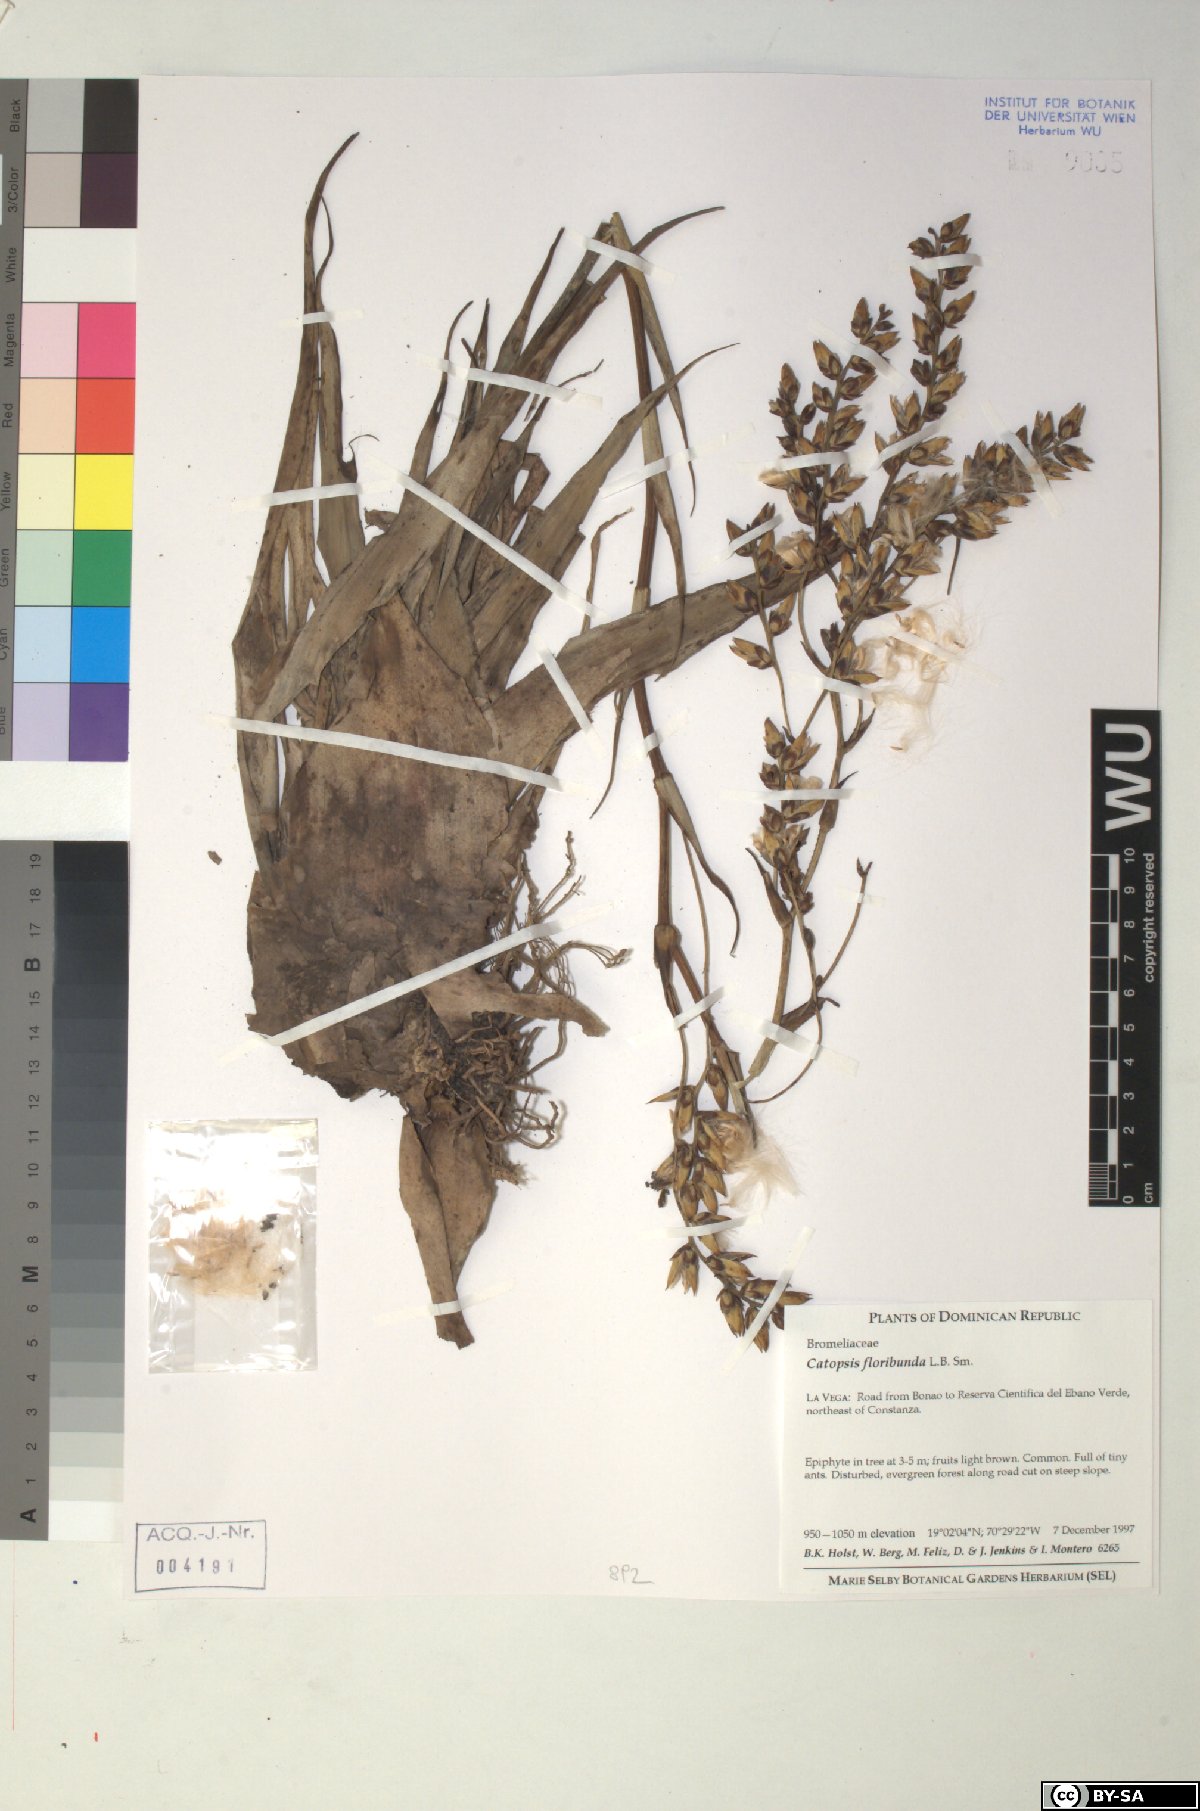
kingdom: Plantae
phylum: Tracheophyta
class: Liliopsida
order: Poales
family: Bromeliaceae
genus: Catopsis
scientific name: Catopsis floribunda
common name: Florida strap airplant
